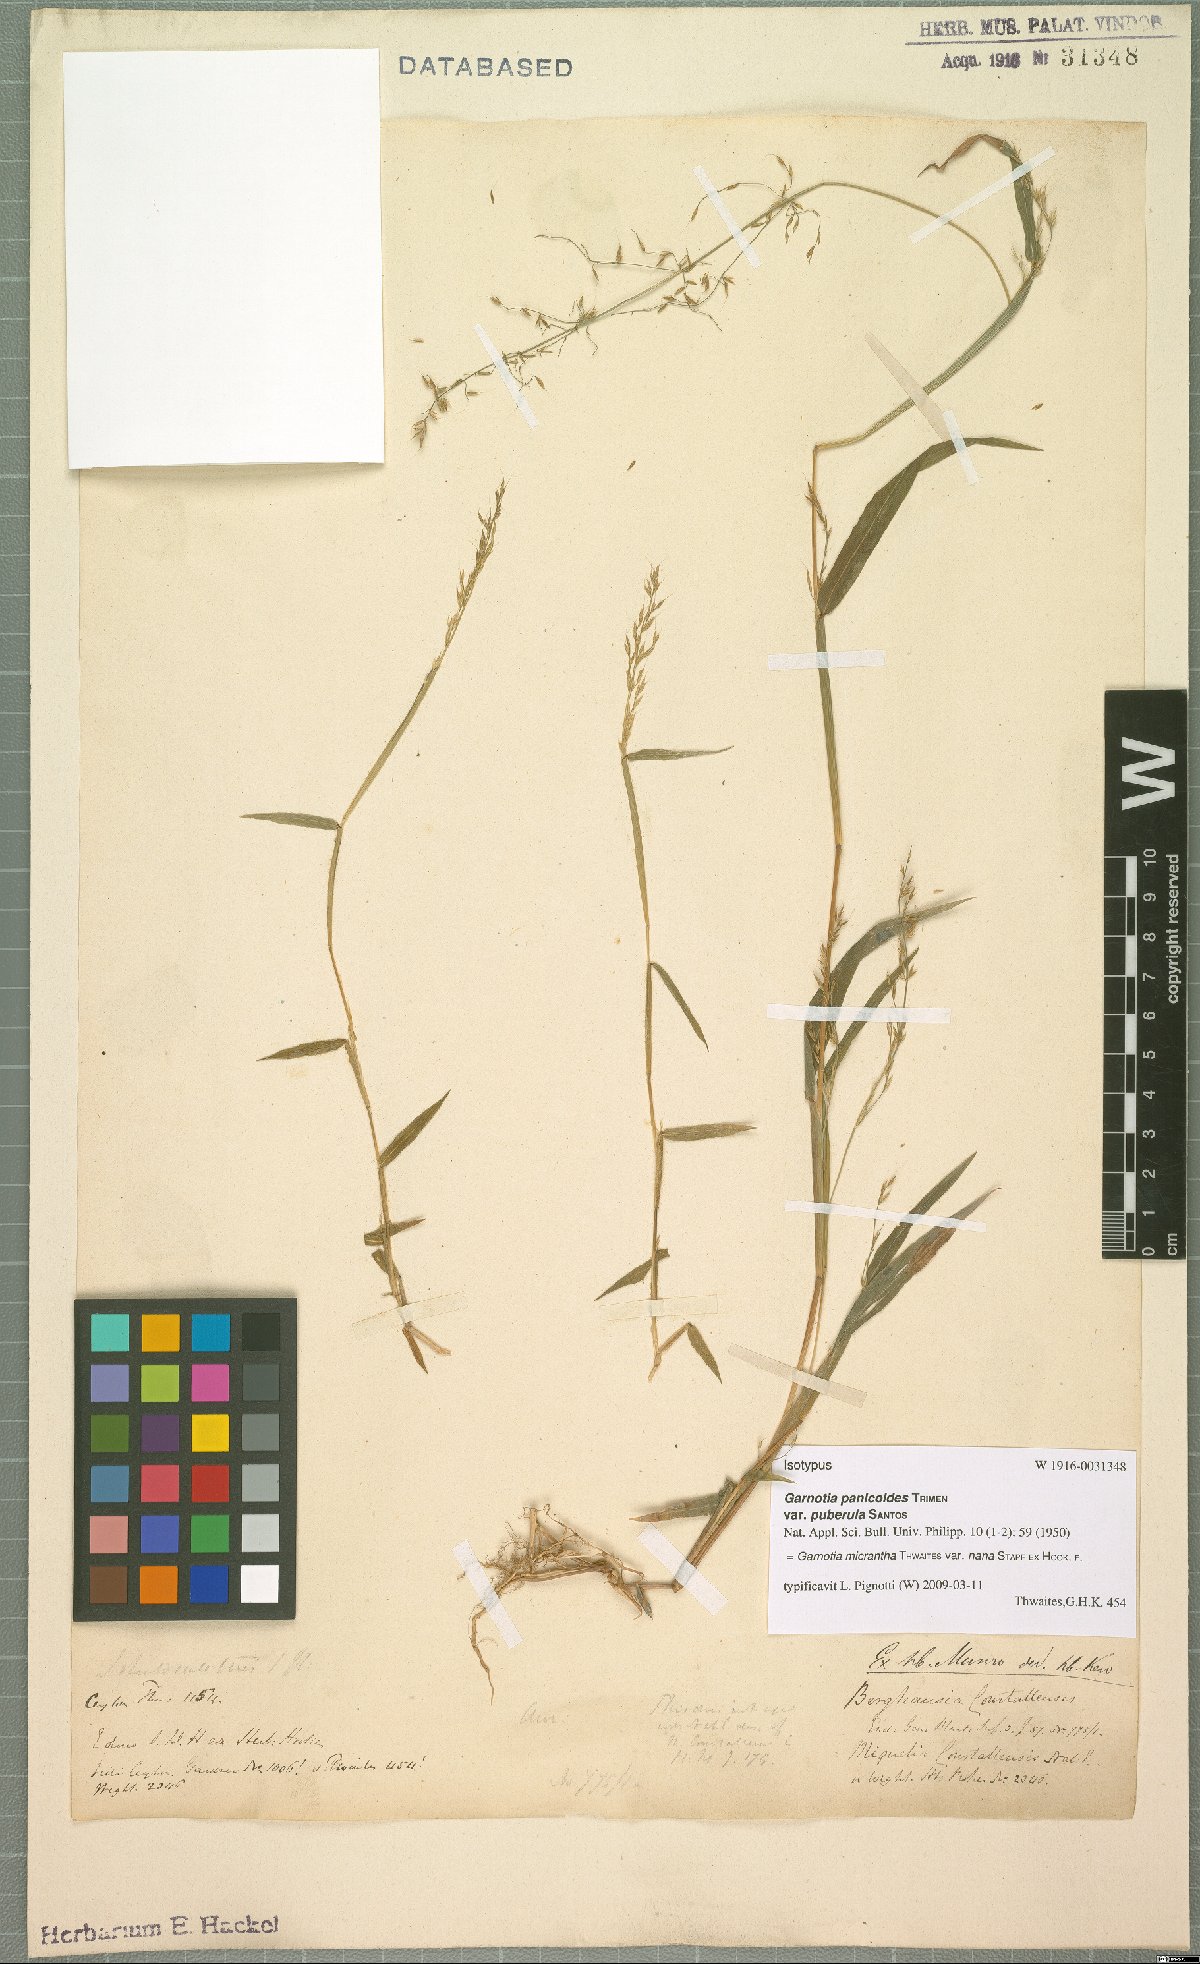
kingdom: Plantae
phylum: Tracheophyta
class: Liliopsida
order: Poales
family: Poaceae
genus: Garnotia
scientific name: Garnotia micrantha
